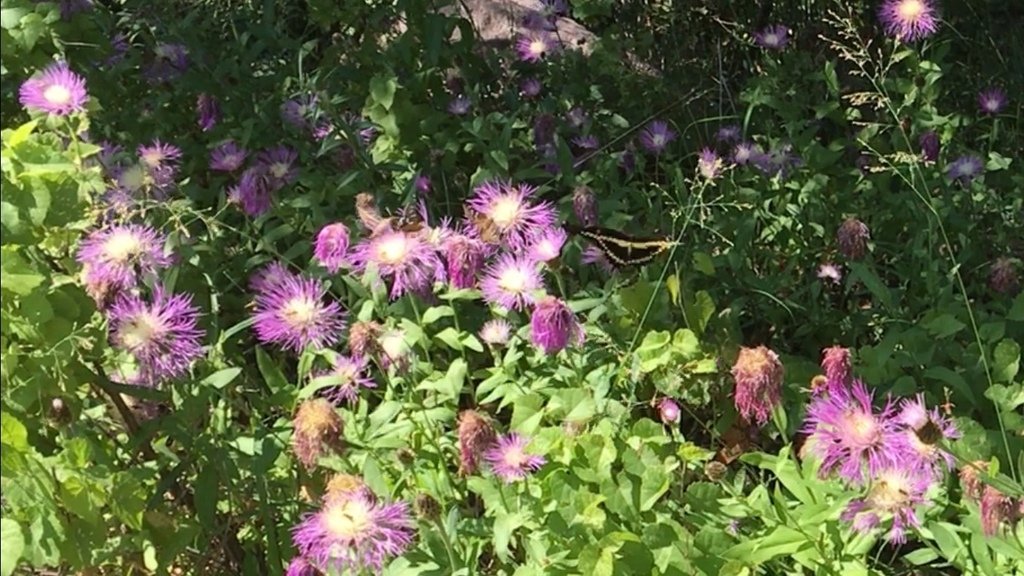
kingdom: Animalia
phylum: Arthropoda
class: Insecta
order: Lepidoptera
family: Papilionidae
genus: Papilio
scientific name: Papilio rumiko
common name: Western Giant Swallowtail
